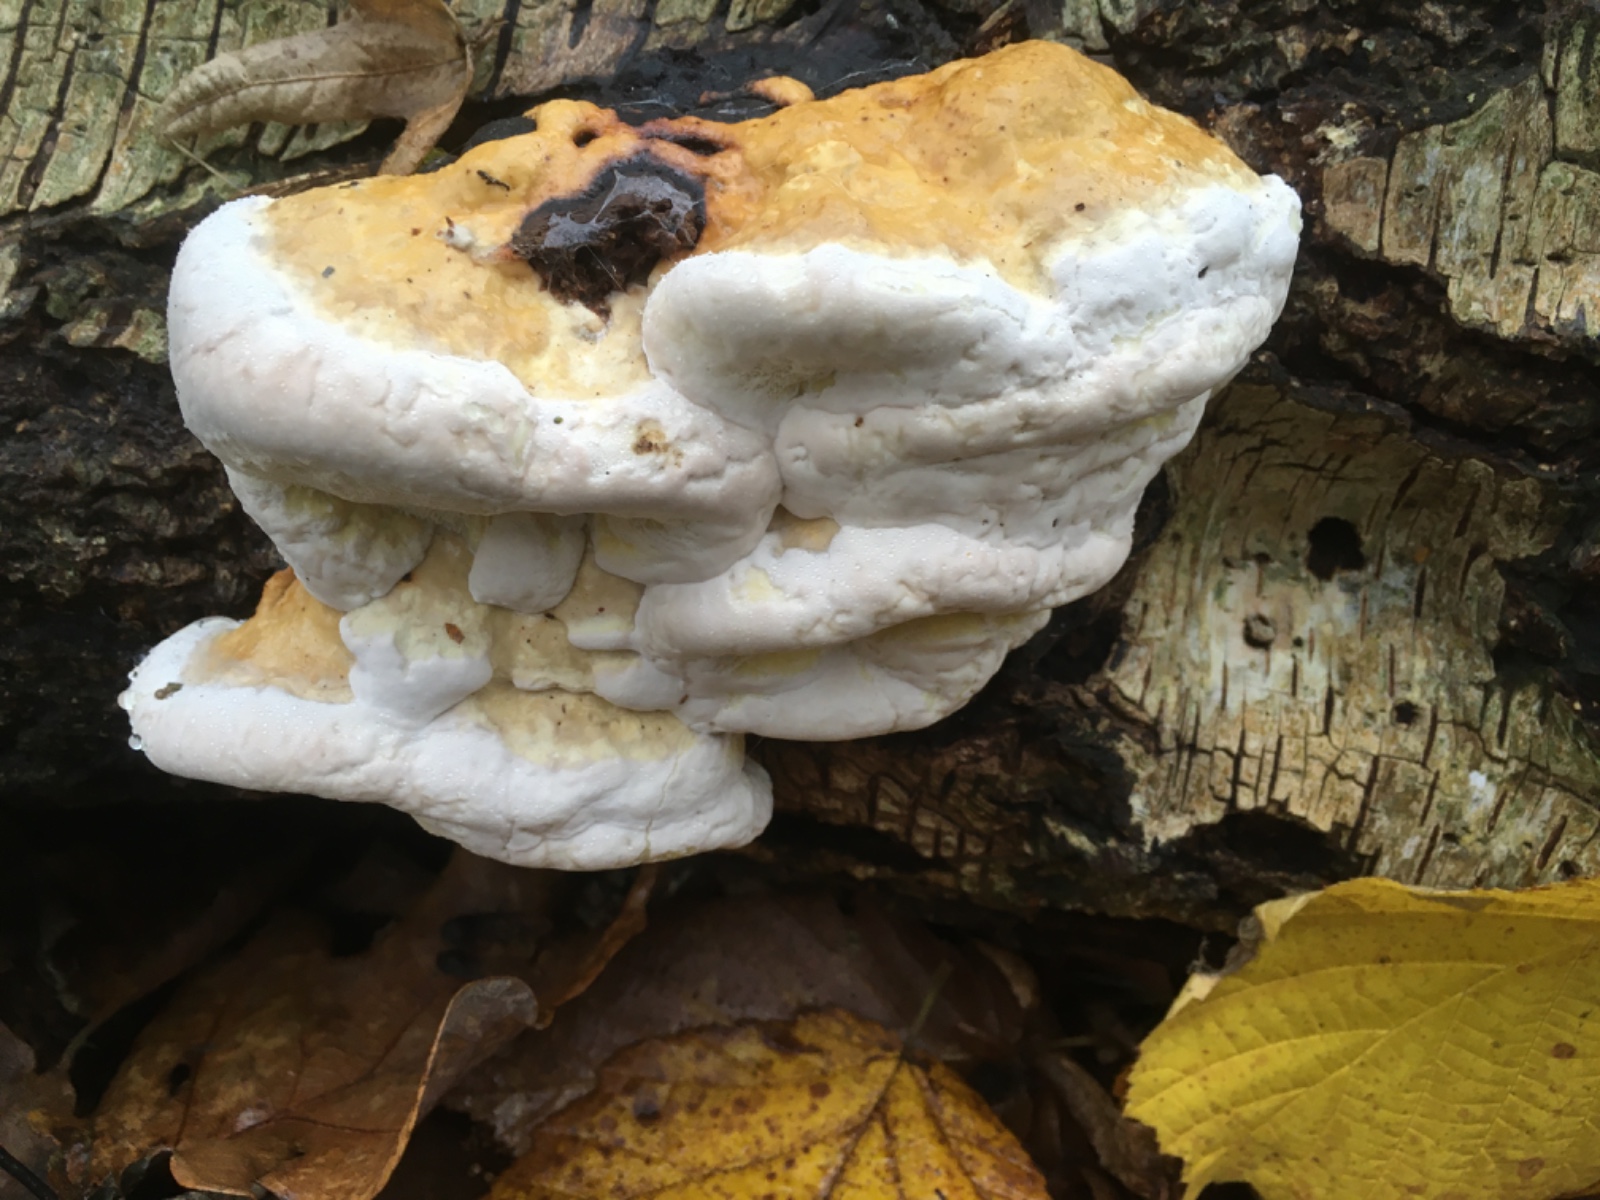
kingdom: Fungi
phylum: Basidiomycota
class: Agaricomycetes
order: Polyporales
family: Fomitopsidaceae
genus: Fomitopsis
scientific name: Fomitopsis pinicola
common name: randbæltet hovporesvamp
